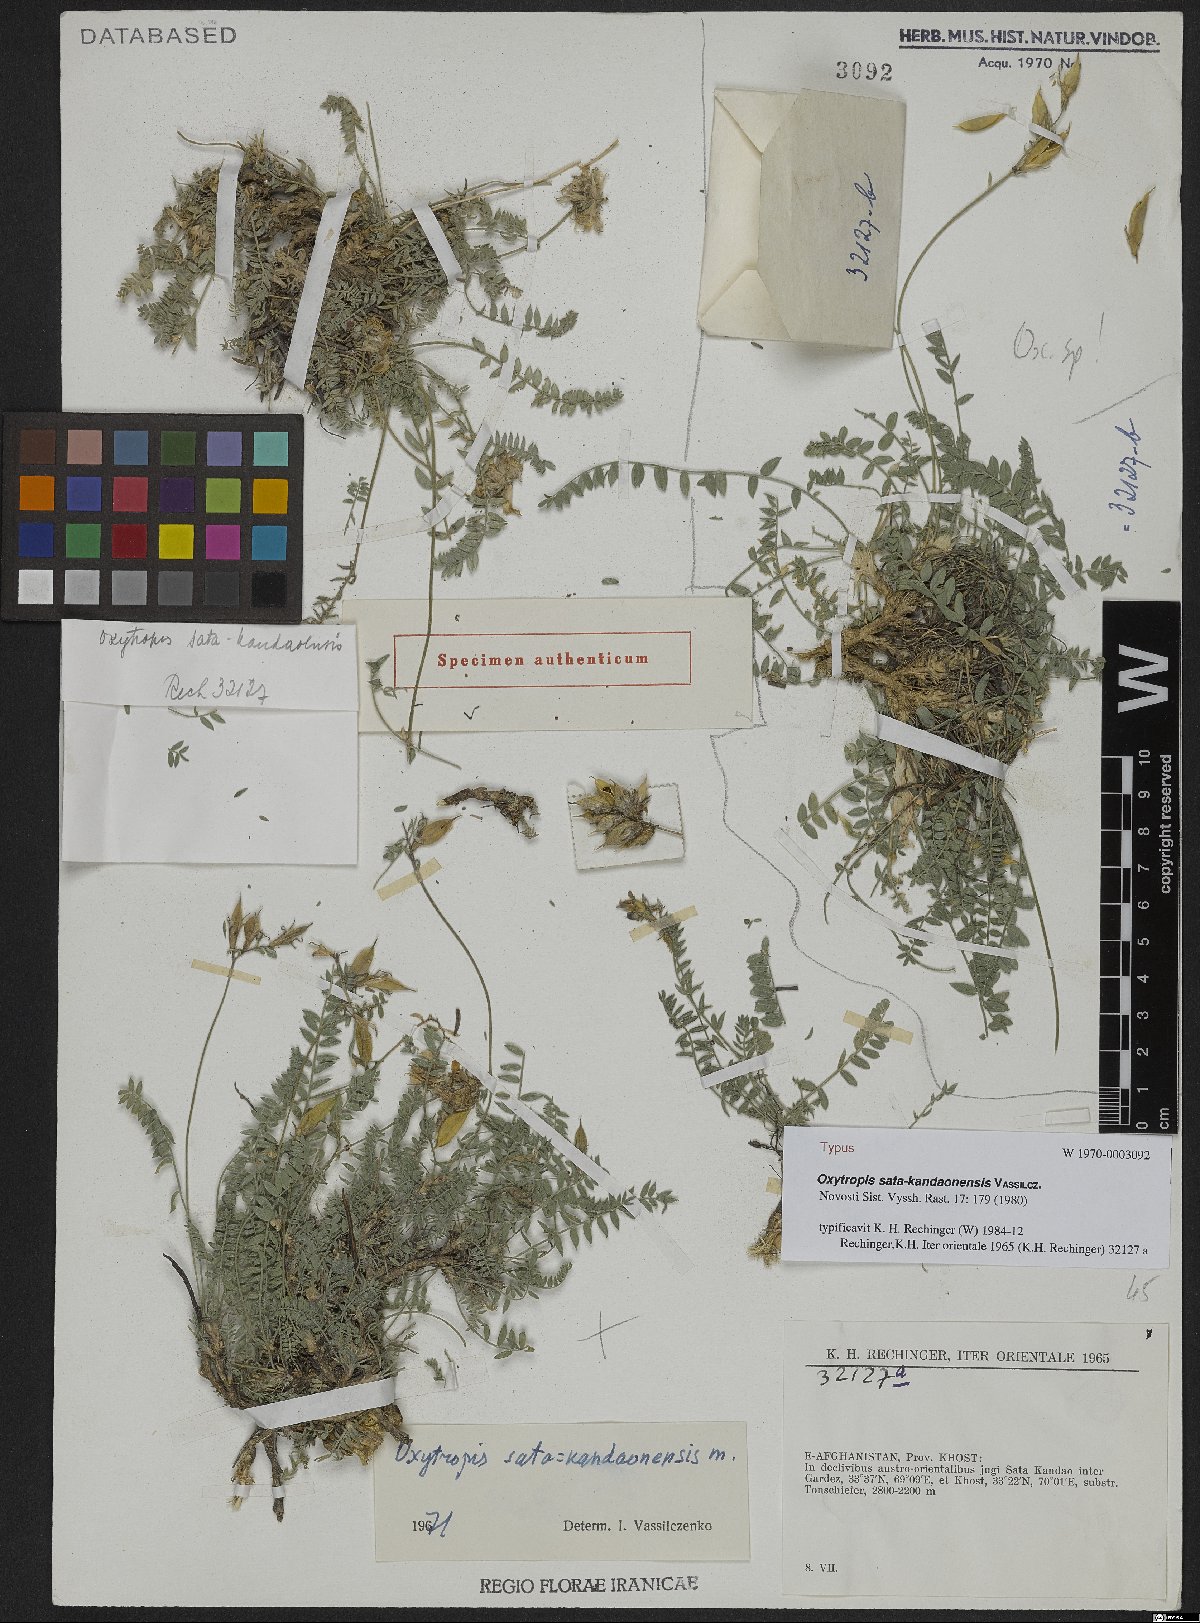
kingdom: Plantae
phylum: Tracheophyta
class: Magnoliopsida
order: Fabales
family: Fabaceae
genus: Oxytropis
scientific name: Oxytropis sata-kandaonensis
